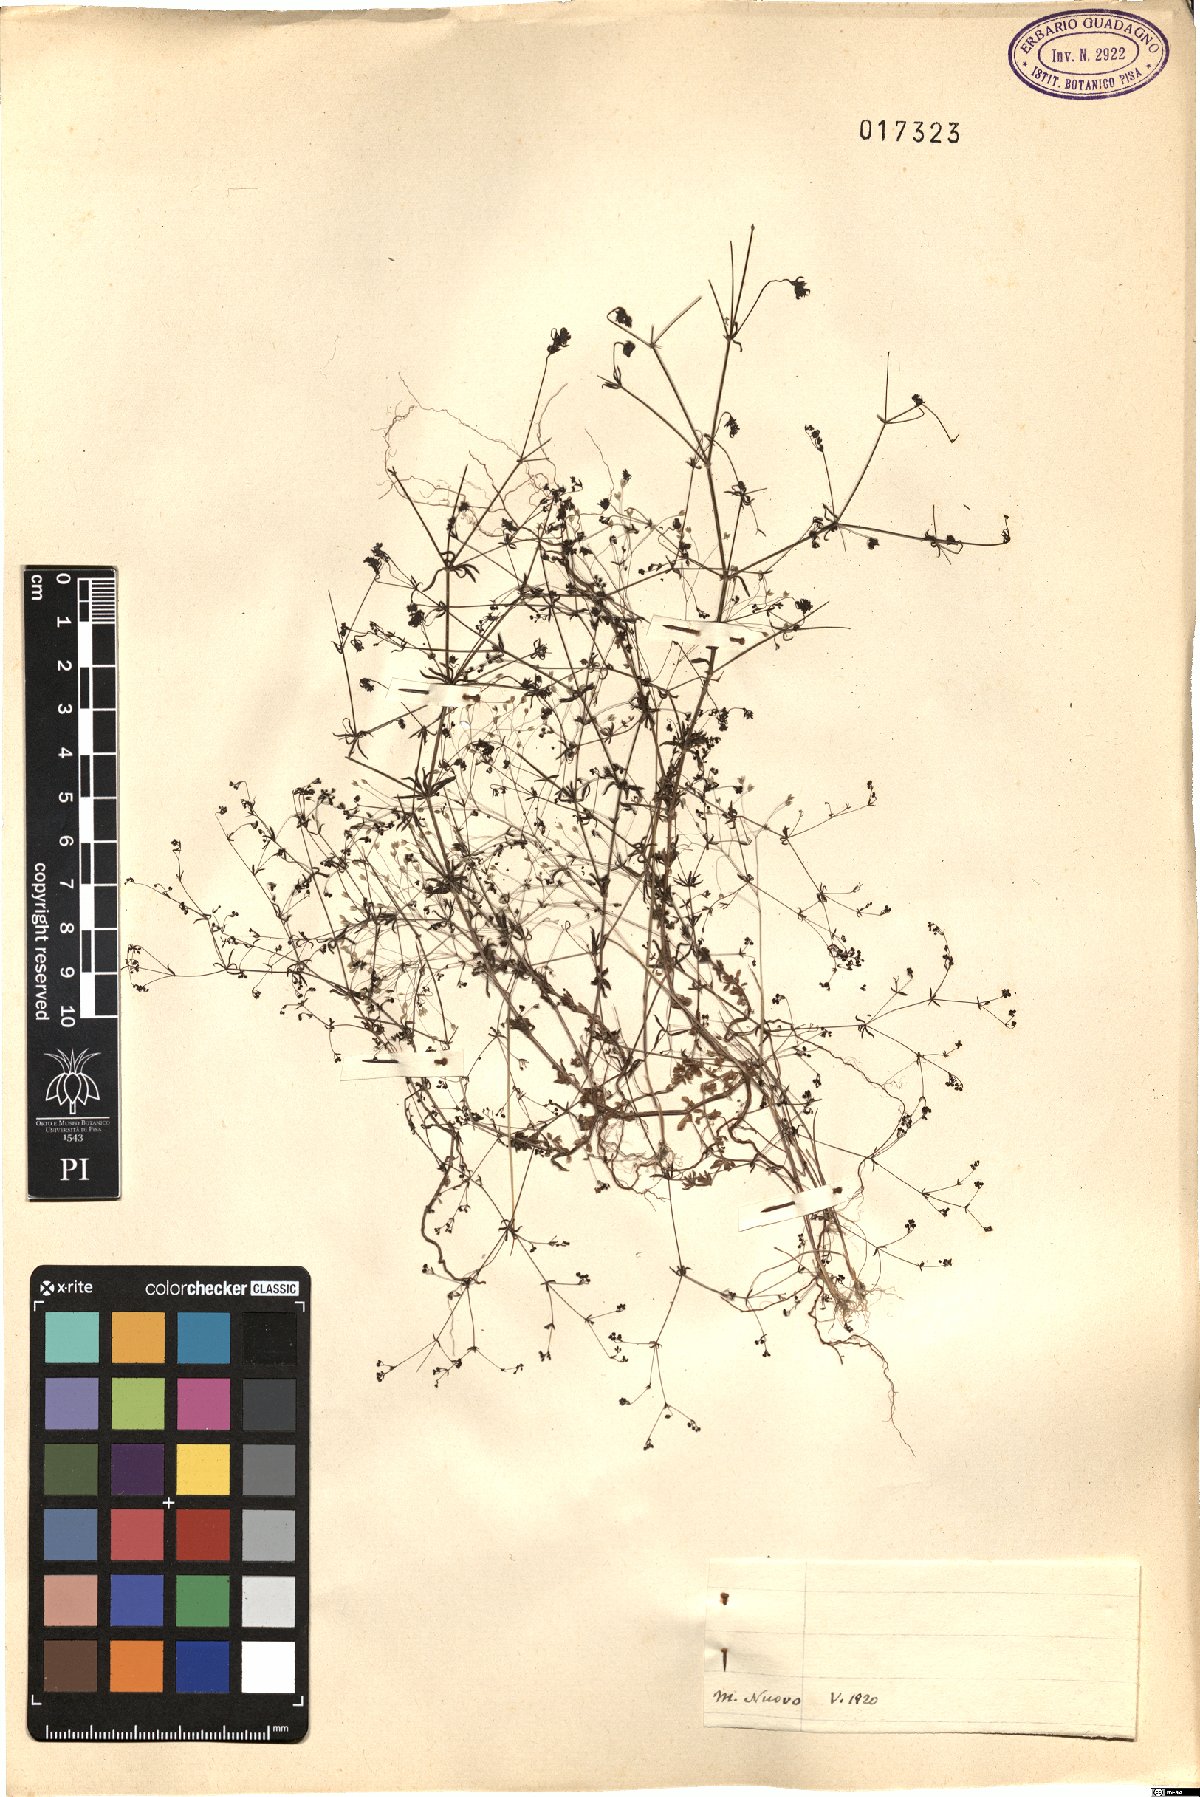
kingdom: Plantae
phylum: Tracheophyta
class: Magnoliopsida
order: Gentianales
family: Rubiaceae
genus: Galium
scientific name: Galium
